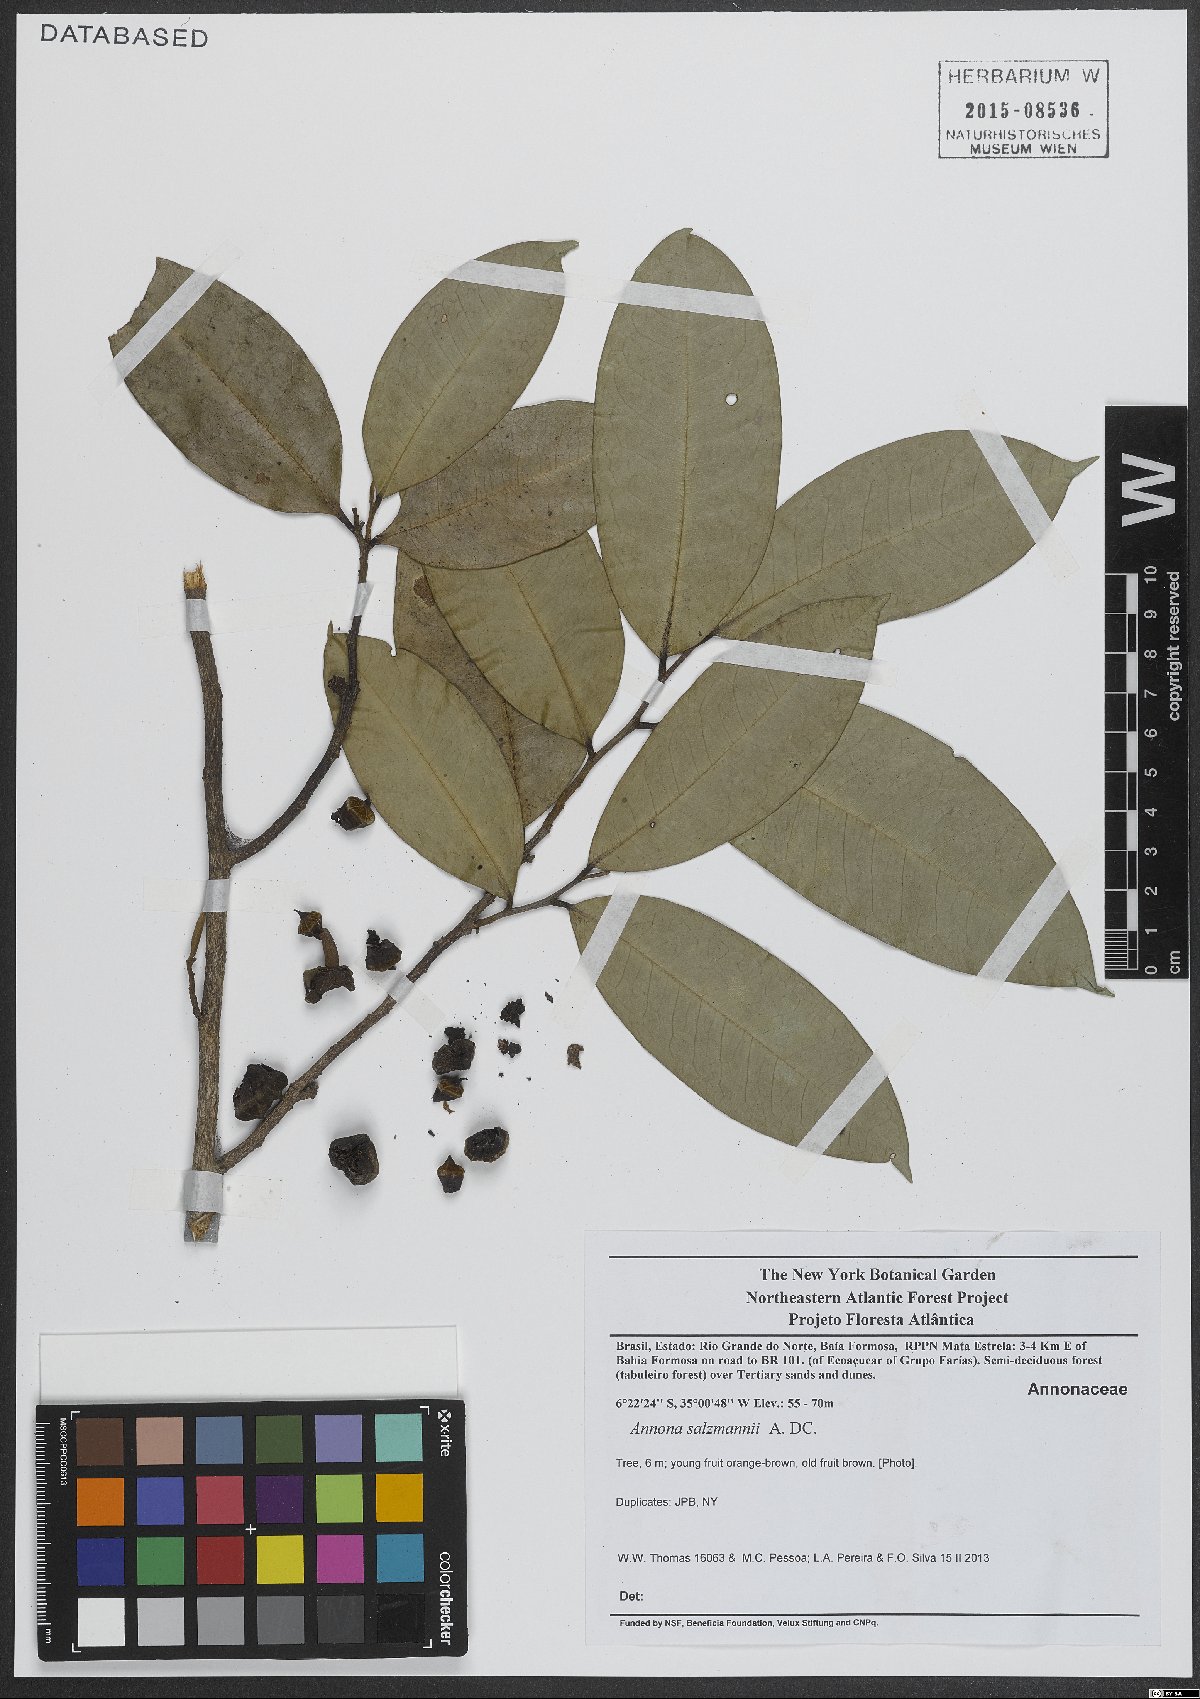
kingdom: Plantae
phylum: Tracheophyta
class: Magnoliopsida
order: Magnoliales
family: Annonaceae
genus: Annona
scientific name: Annona salzmannii
